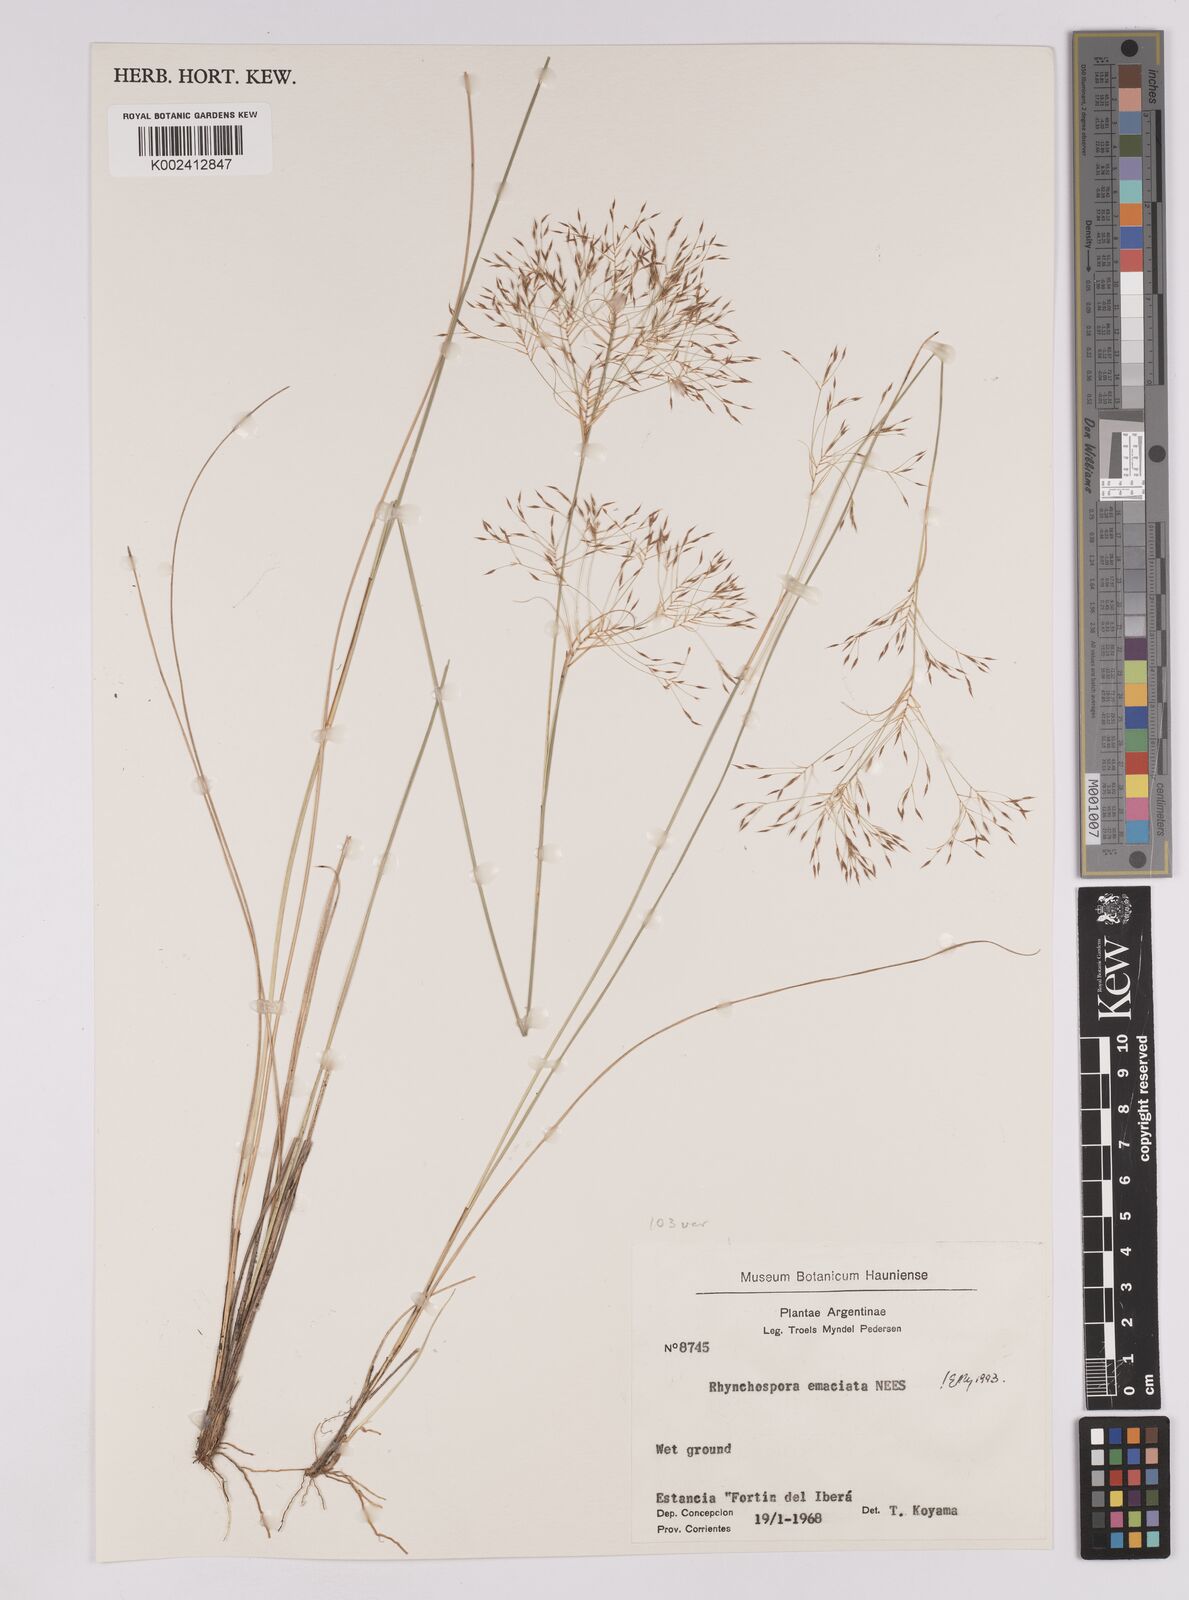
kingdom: Plantae
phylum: Tracheophyta
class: Liliopsida
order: Poales
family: Cyperaceae
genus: Rhynchospora
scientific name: Rhynchospora emaciata
